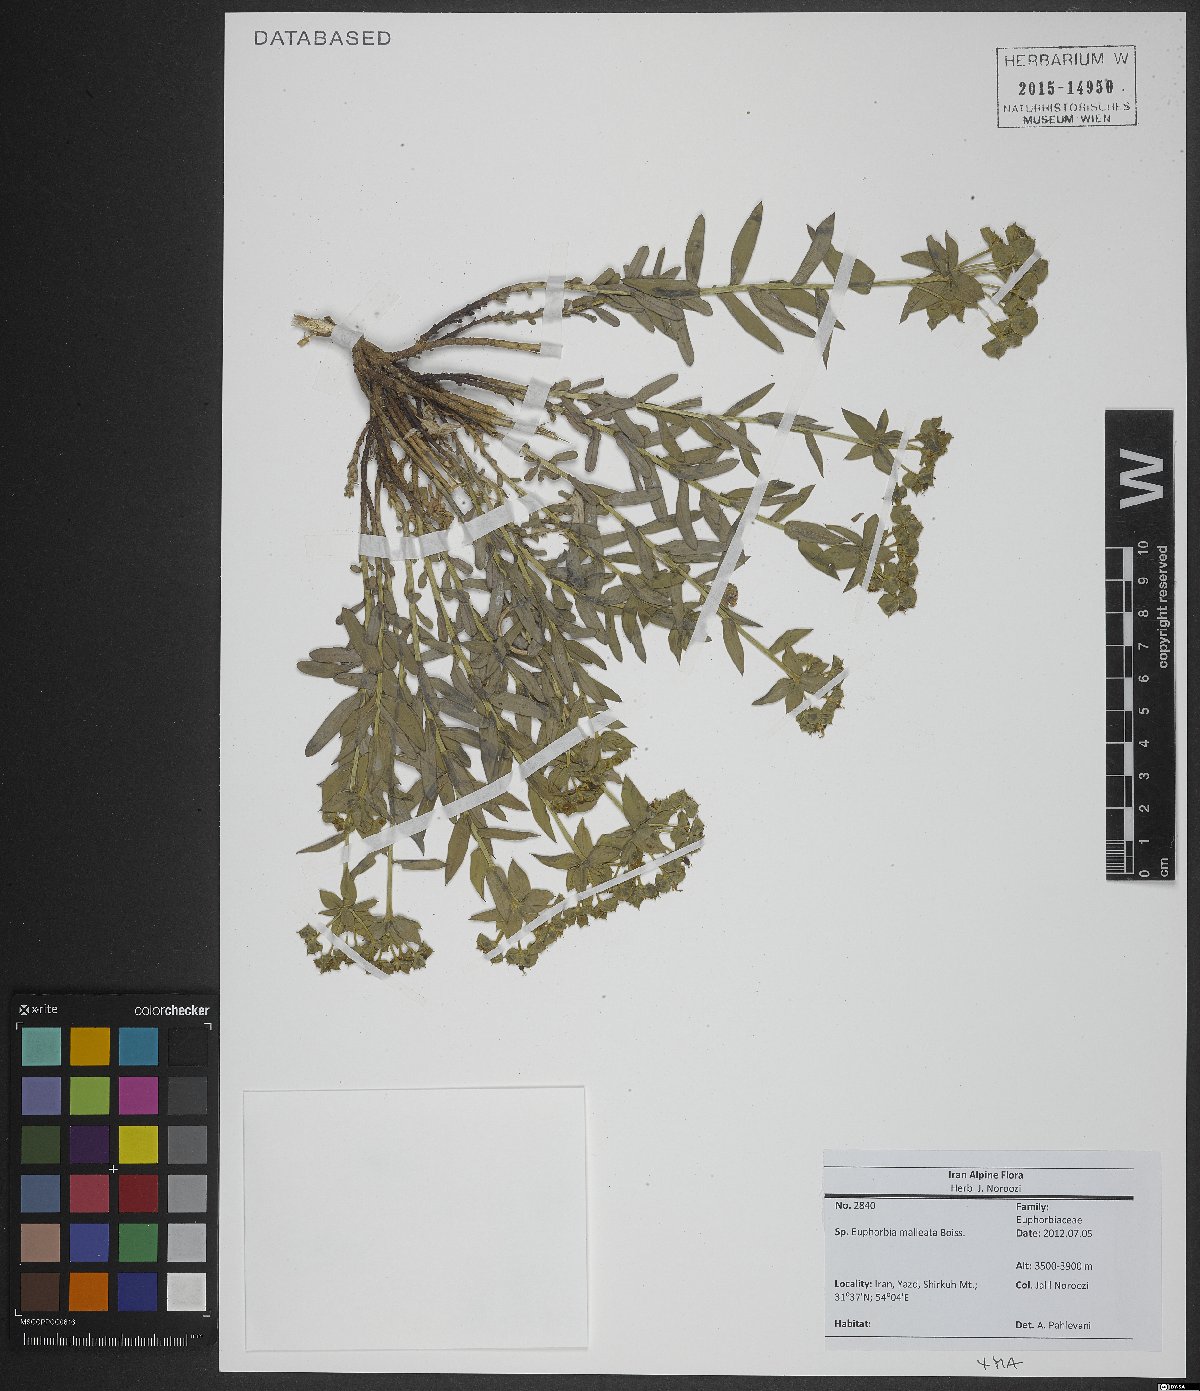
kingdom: Plantae
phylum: Tracheophyta
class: Magnoliopsida
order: Malpighiales
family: Euphorbiaceae
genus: Euphorbia
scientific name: Euphorbia malleata
